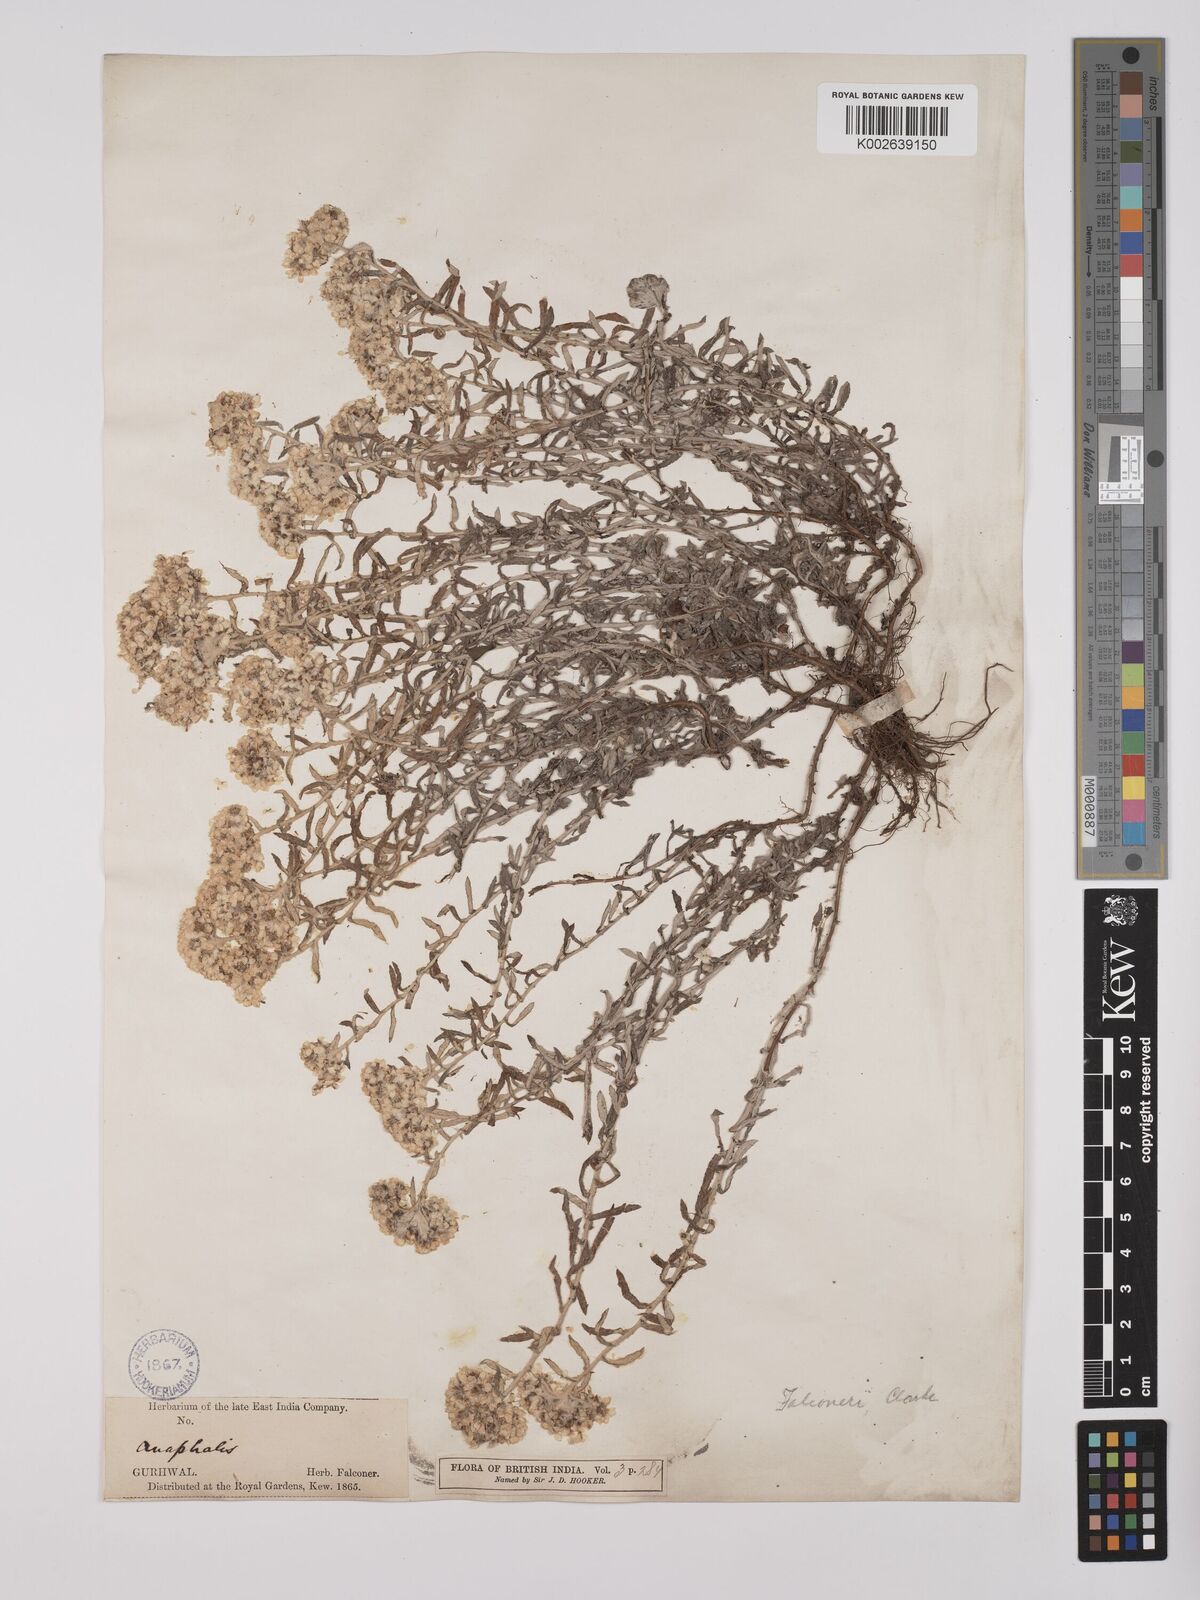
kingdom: Plantae
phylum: Tracheophyta
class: Magnoliopsida
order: Asterales
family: Asteraceae
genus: Anaphalis
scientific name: Anaphalis contorta
